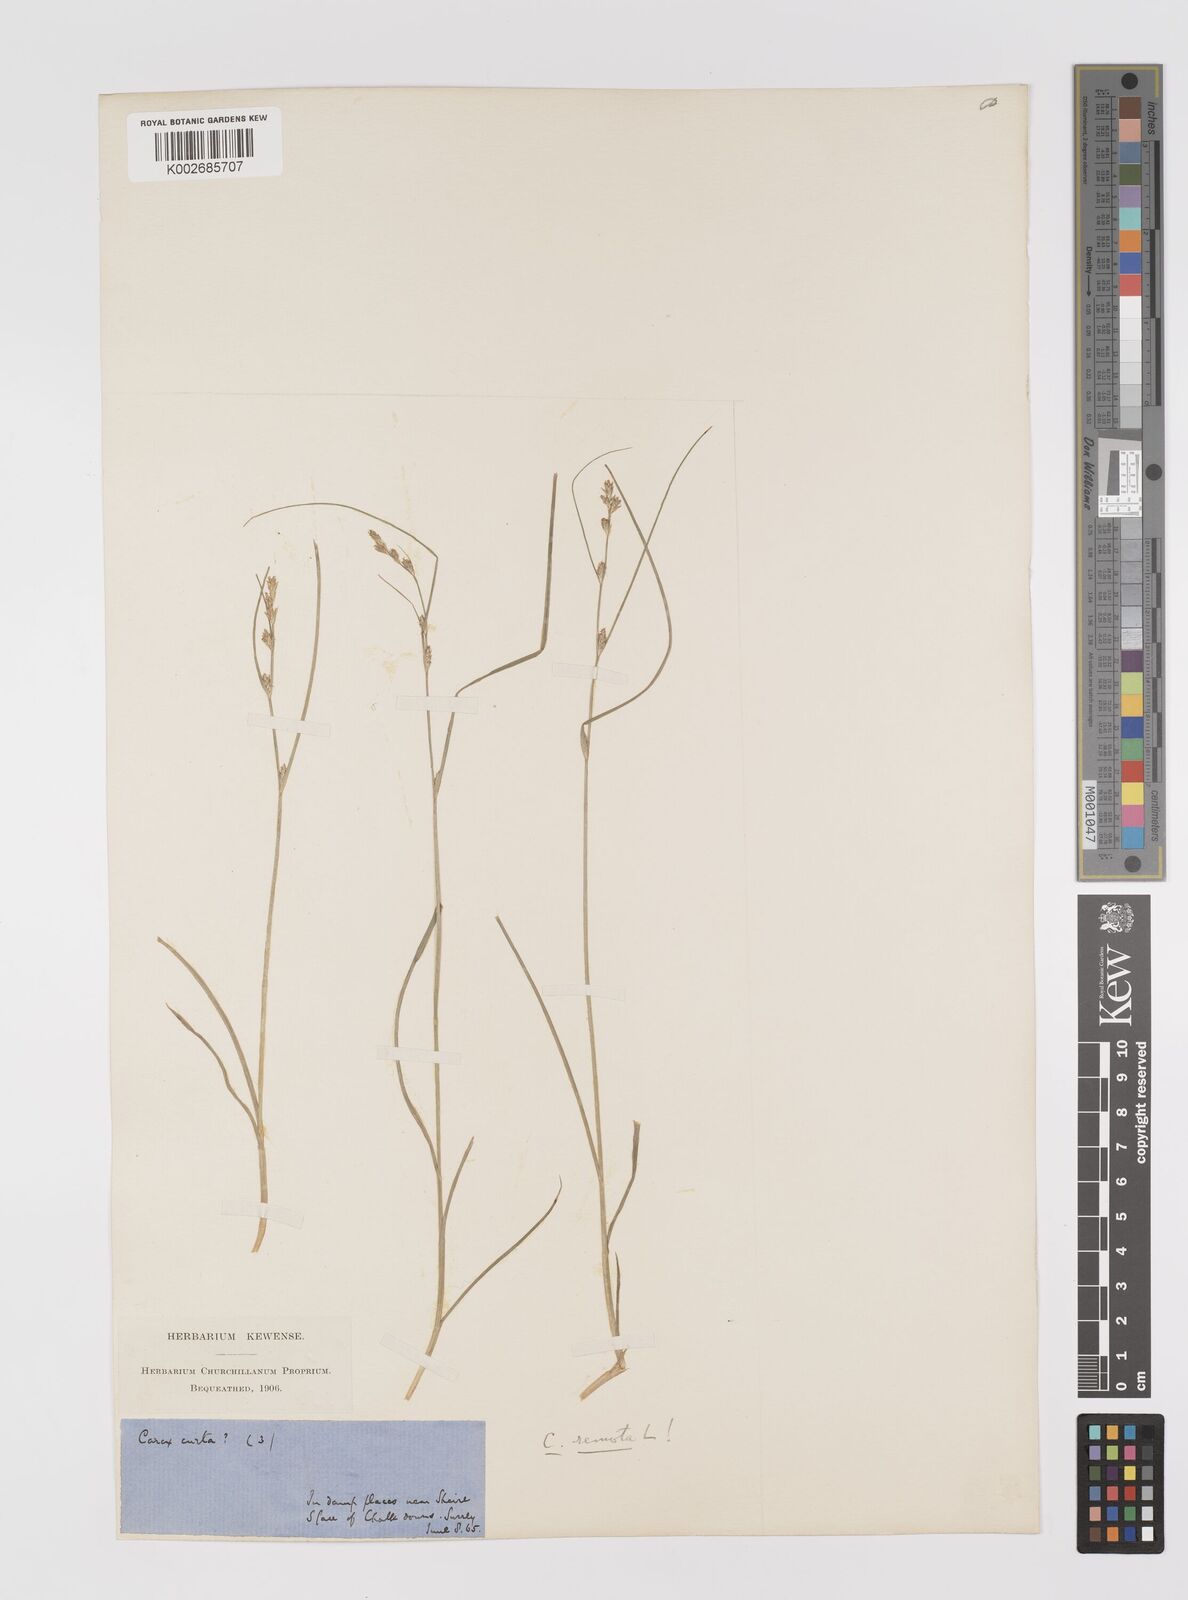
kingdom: Plantae
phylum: Tracheophyta
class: Liliopsida
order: Poales
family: Cyperaceae
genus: Carex
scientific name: Carex remota
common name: Remote sedge
